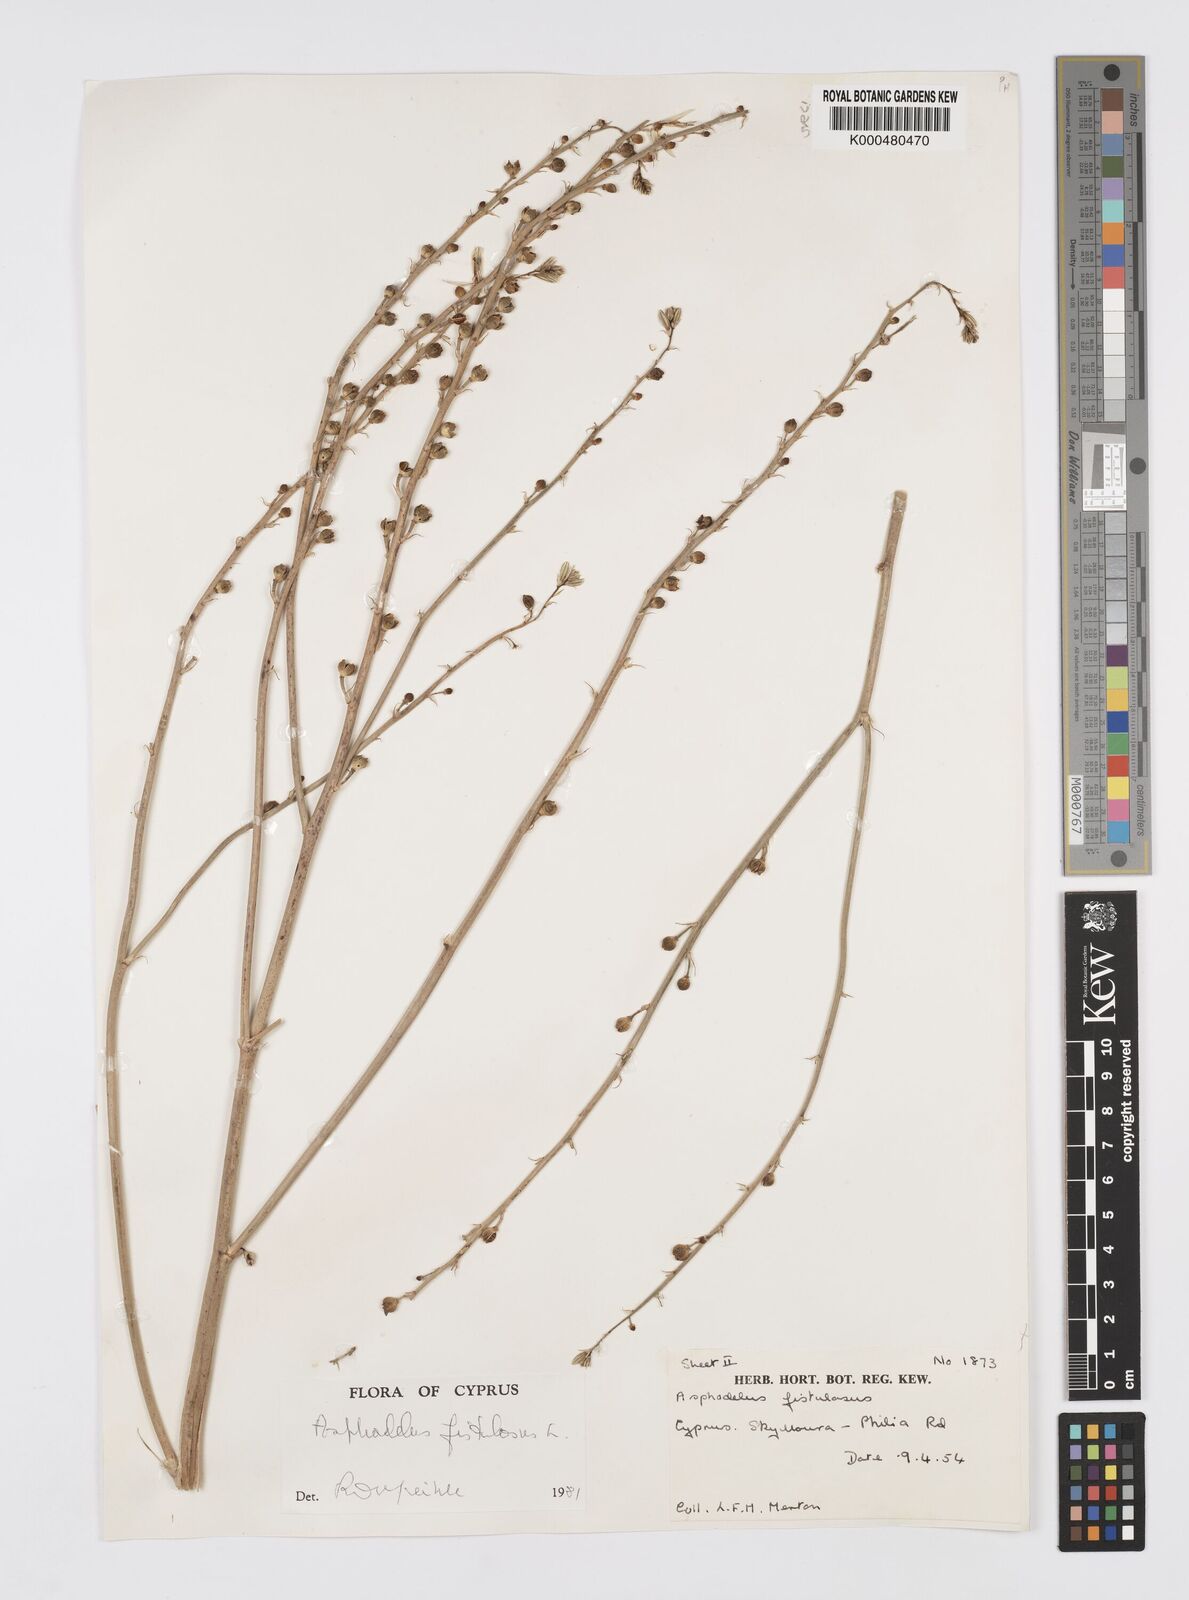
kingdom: Plantae
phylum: Tracheophyta
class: Liliopsida
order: Asparagales
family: Asphodelaceae
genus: Asphodelus
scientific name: Asphodelus fistulosus
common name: Onionweed
